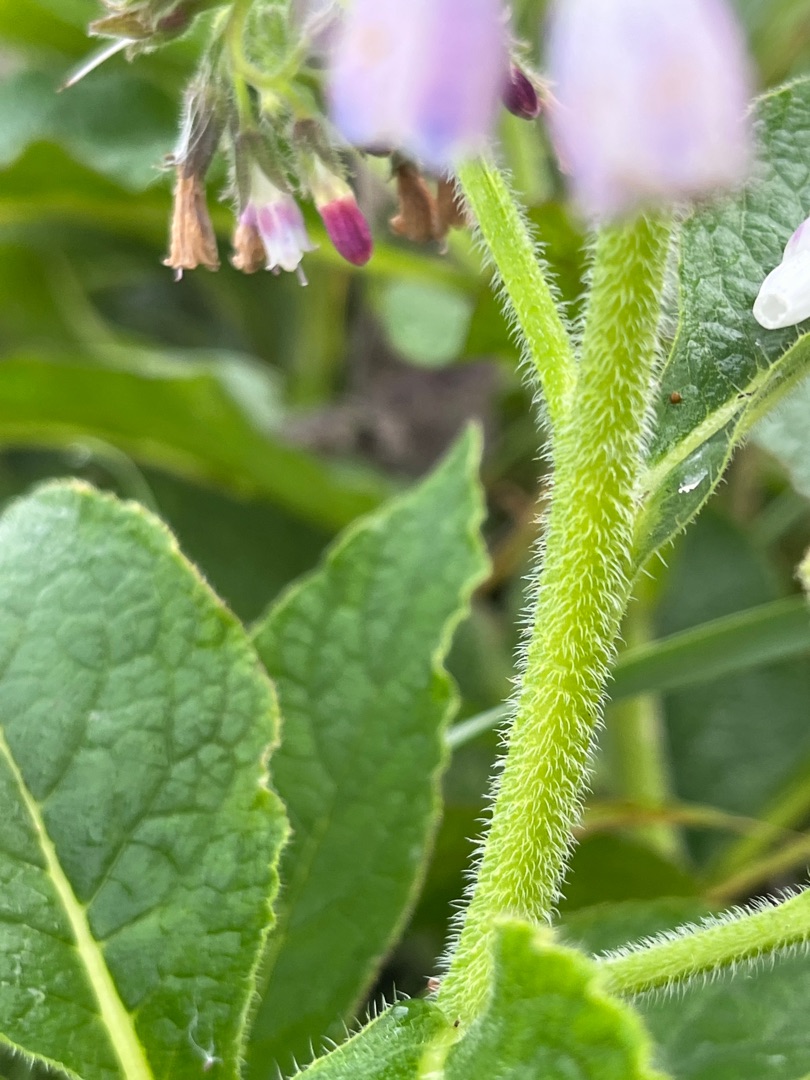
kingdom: Plantae
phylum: Tracheophyta
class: Magnoliopsida
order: Boraginales
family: Boraginaceae
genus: Symphytum
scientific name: Symphytum uplandicum
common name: Foder-kulsukker
